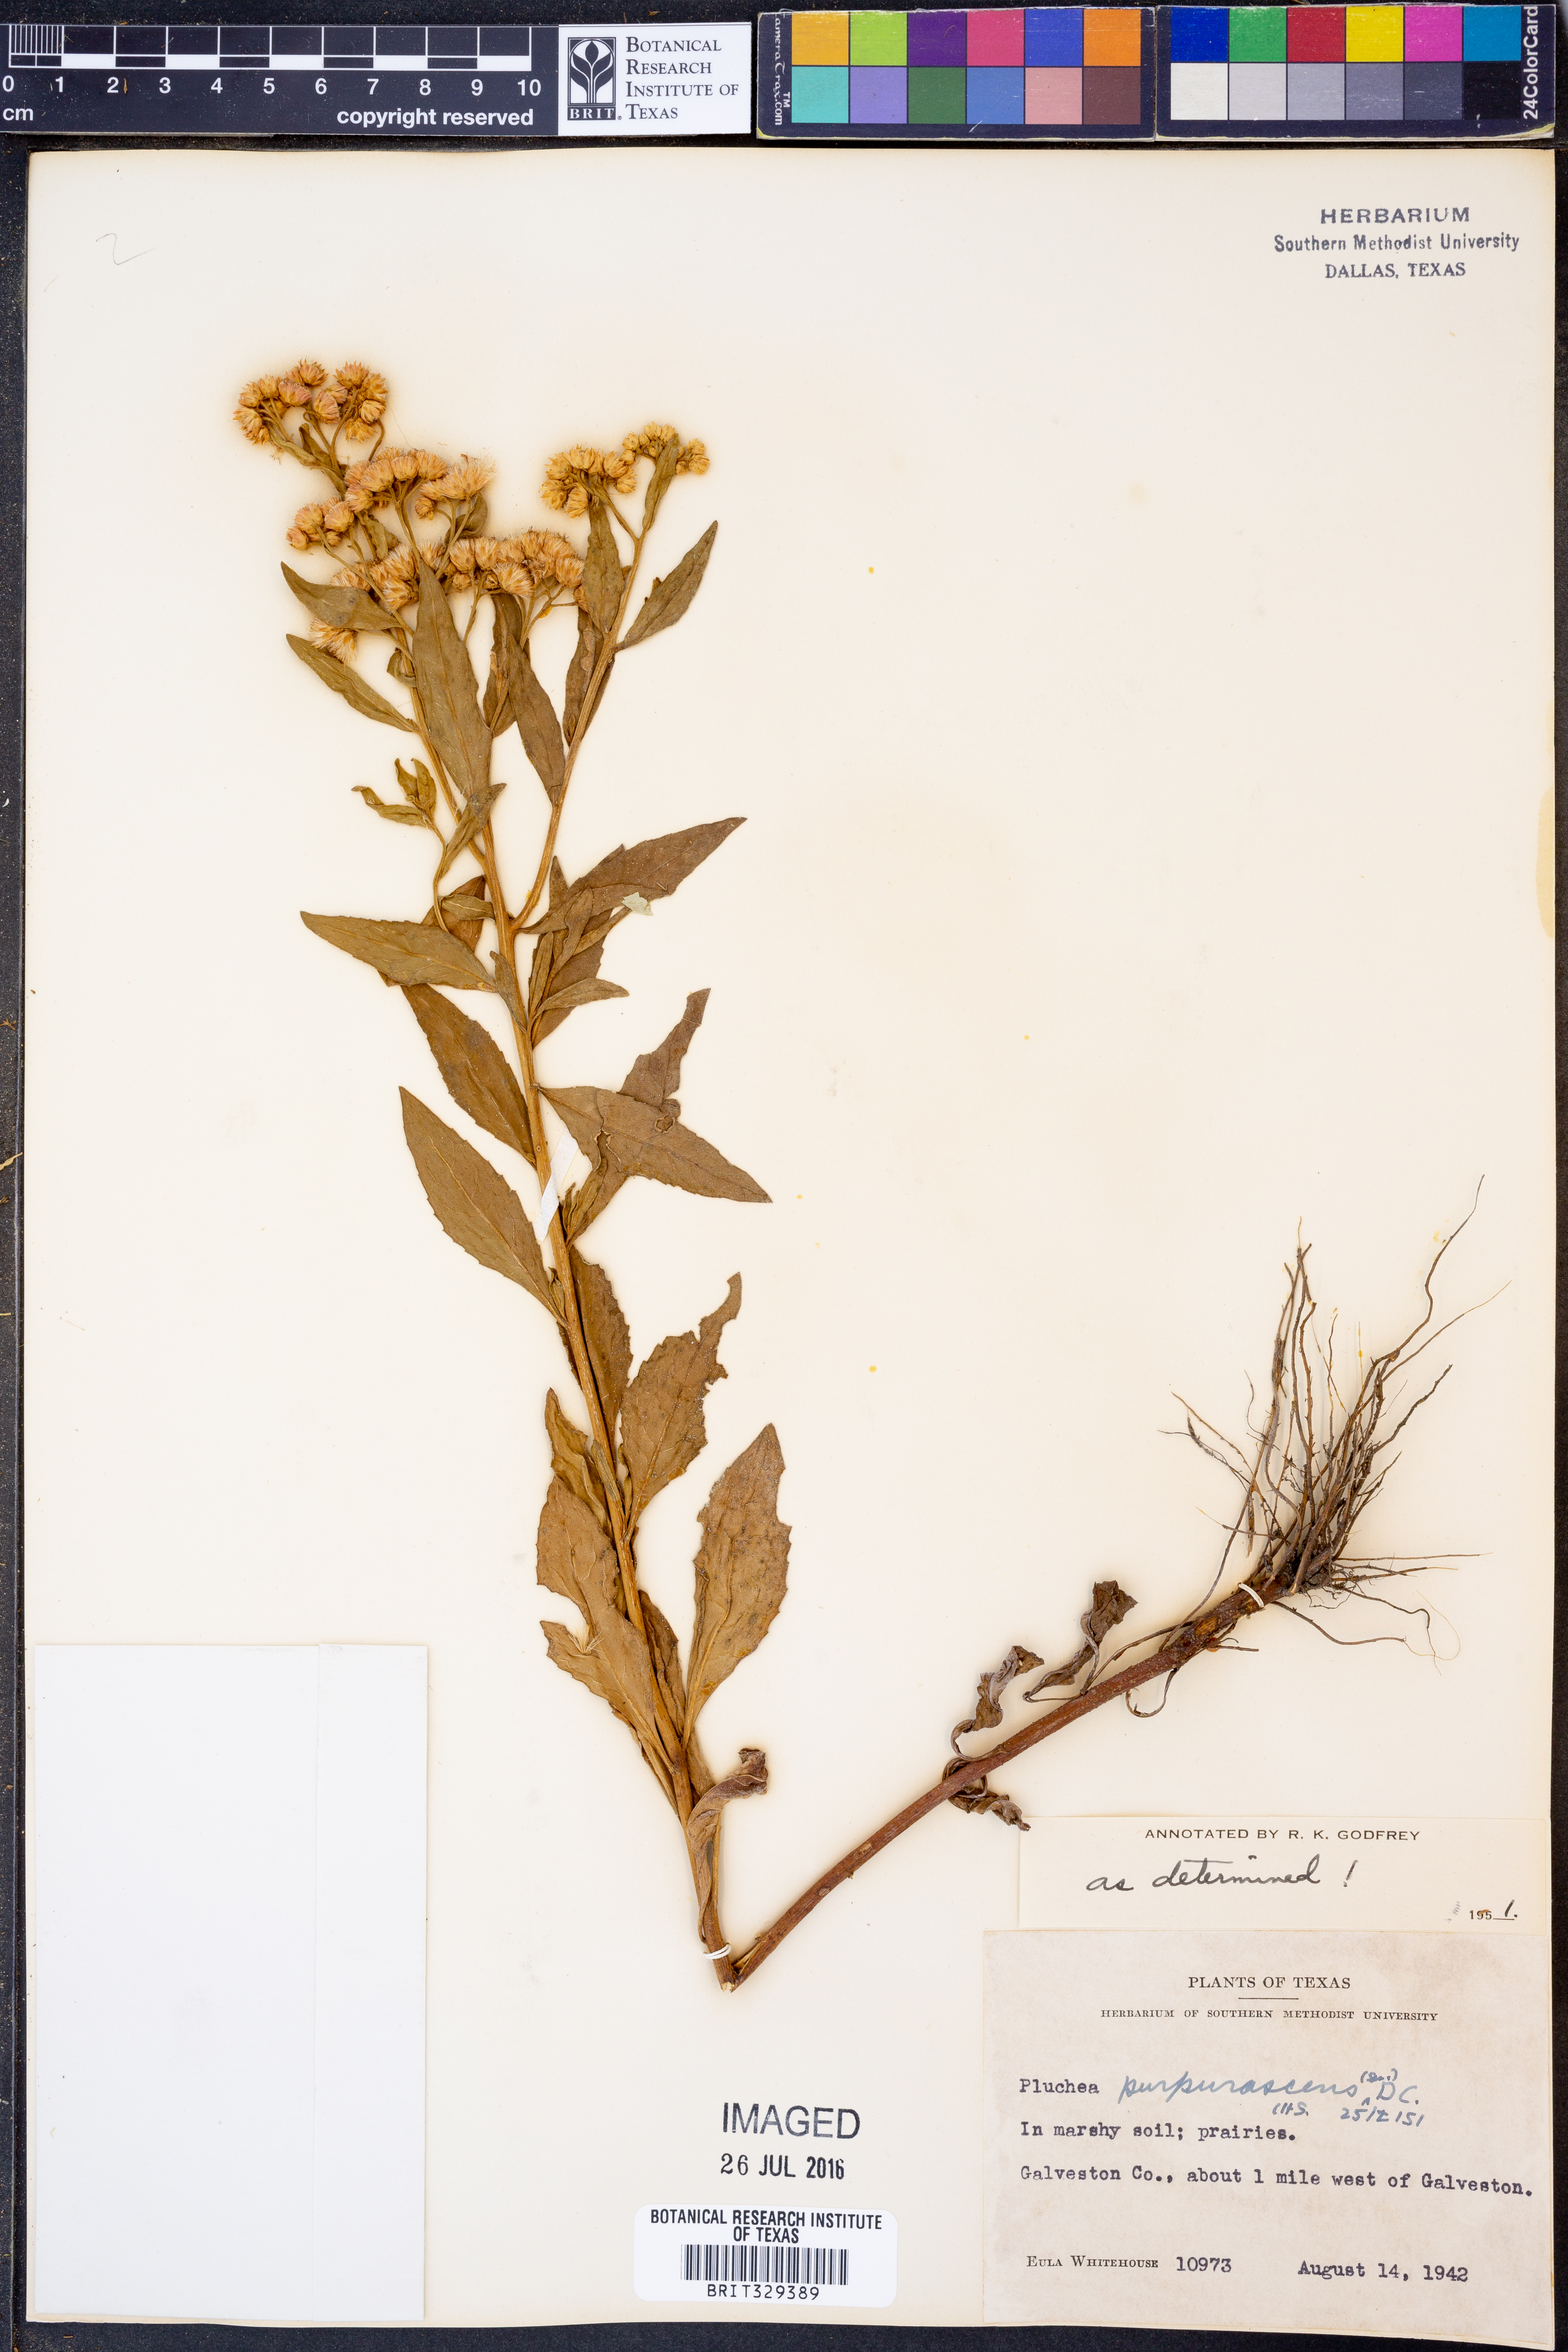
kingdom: Plantae
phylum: Tracheophyta
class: Magnoliopsida
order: Asterales
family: Asteraceae
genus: Pluchea
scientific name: Pluchea odorata
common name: Saltmarsh fleabane
